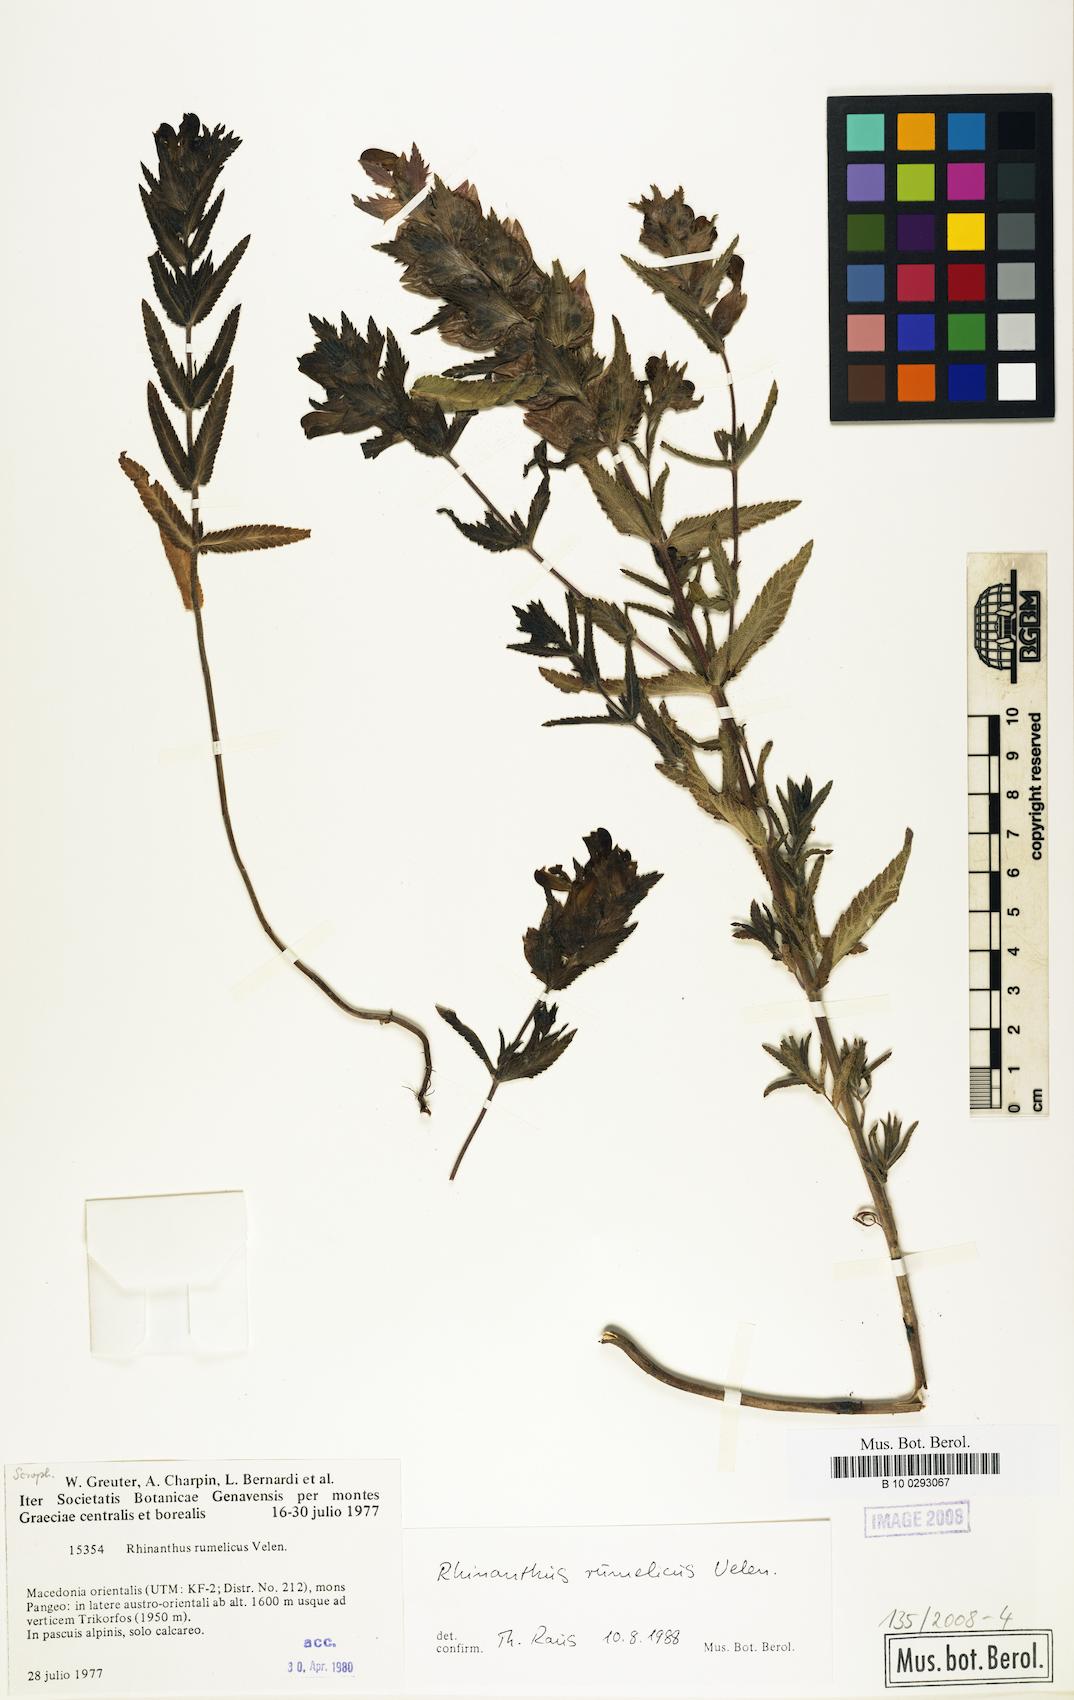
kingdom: Plantae
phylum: Tracheophyta
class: Magnoliopsida
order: Lamiales
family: Orobanchaceae
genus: Rhinanthus
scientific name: Rhinanthus rumelicus
